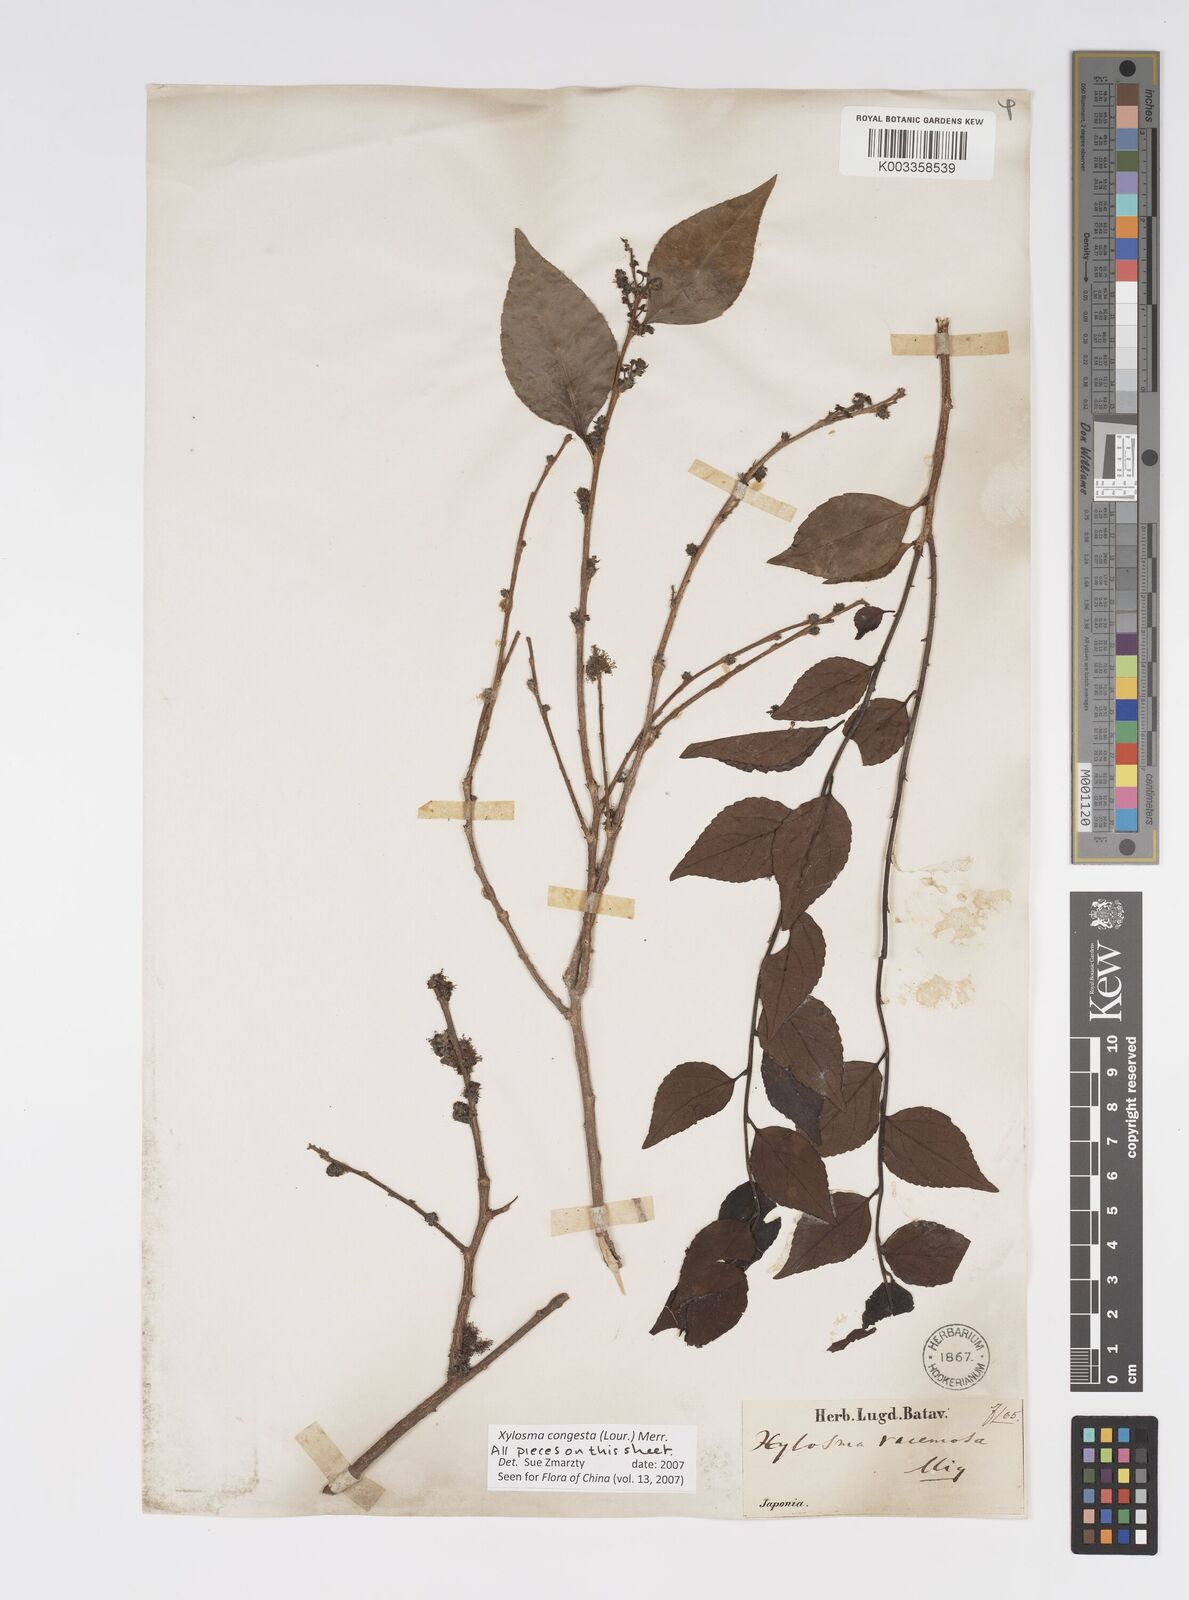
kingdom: Plantae
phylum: Tracheophyta
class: Magnoliopsida
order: Malpighiales
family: Salicaceae
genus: Xylosma
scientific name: Xylosma racemosum
